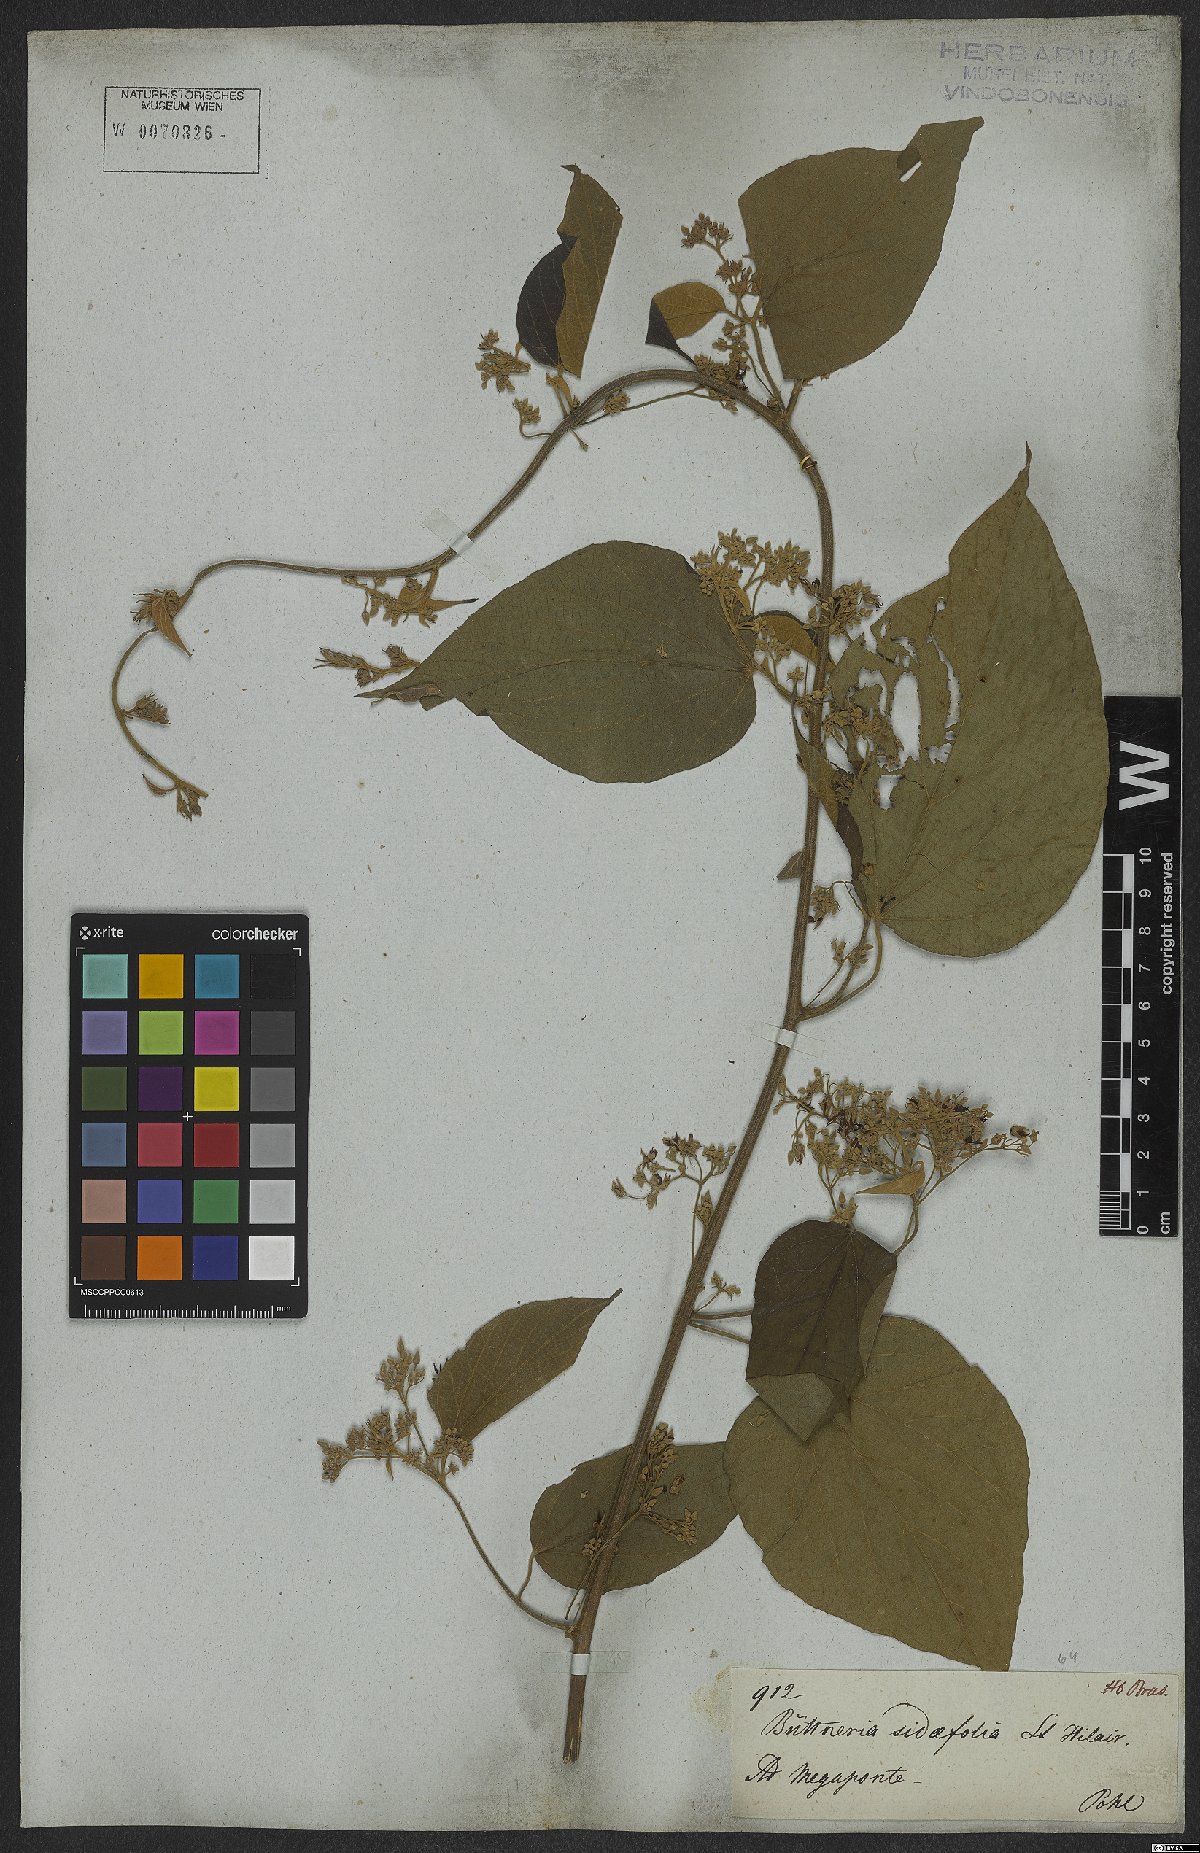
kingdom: Plantae
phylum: Tracheophyta
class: Magnoliopsida
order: Malvales
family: Malvaceae
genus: Byttneria
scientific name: Byttneria catalpifolia
